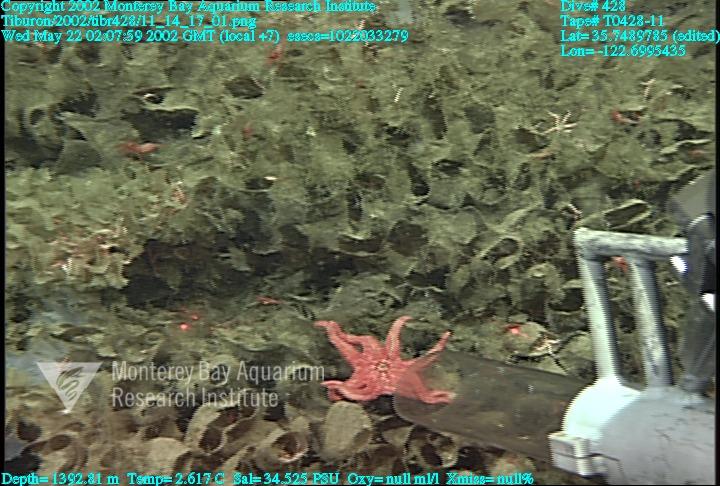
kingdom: Animalia
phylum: Porifera
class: Hexactinellida
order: Sceptrulophora
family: Farreidae
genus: Farrea
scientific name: Farrea occa
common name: Reversed glass sponge
